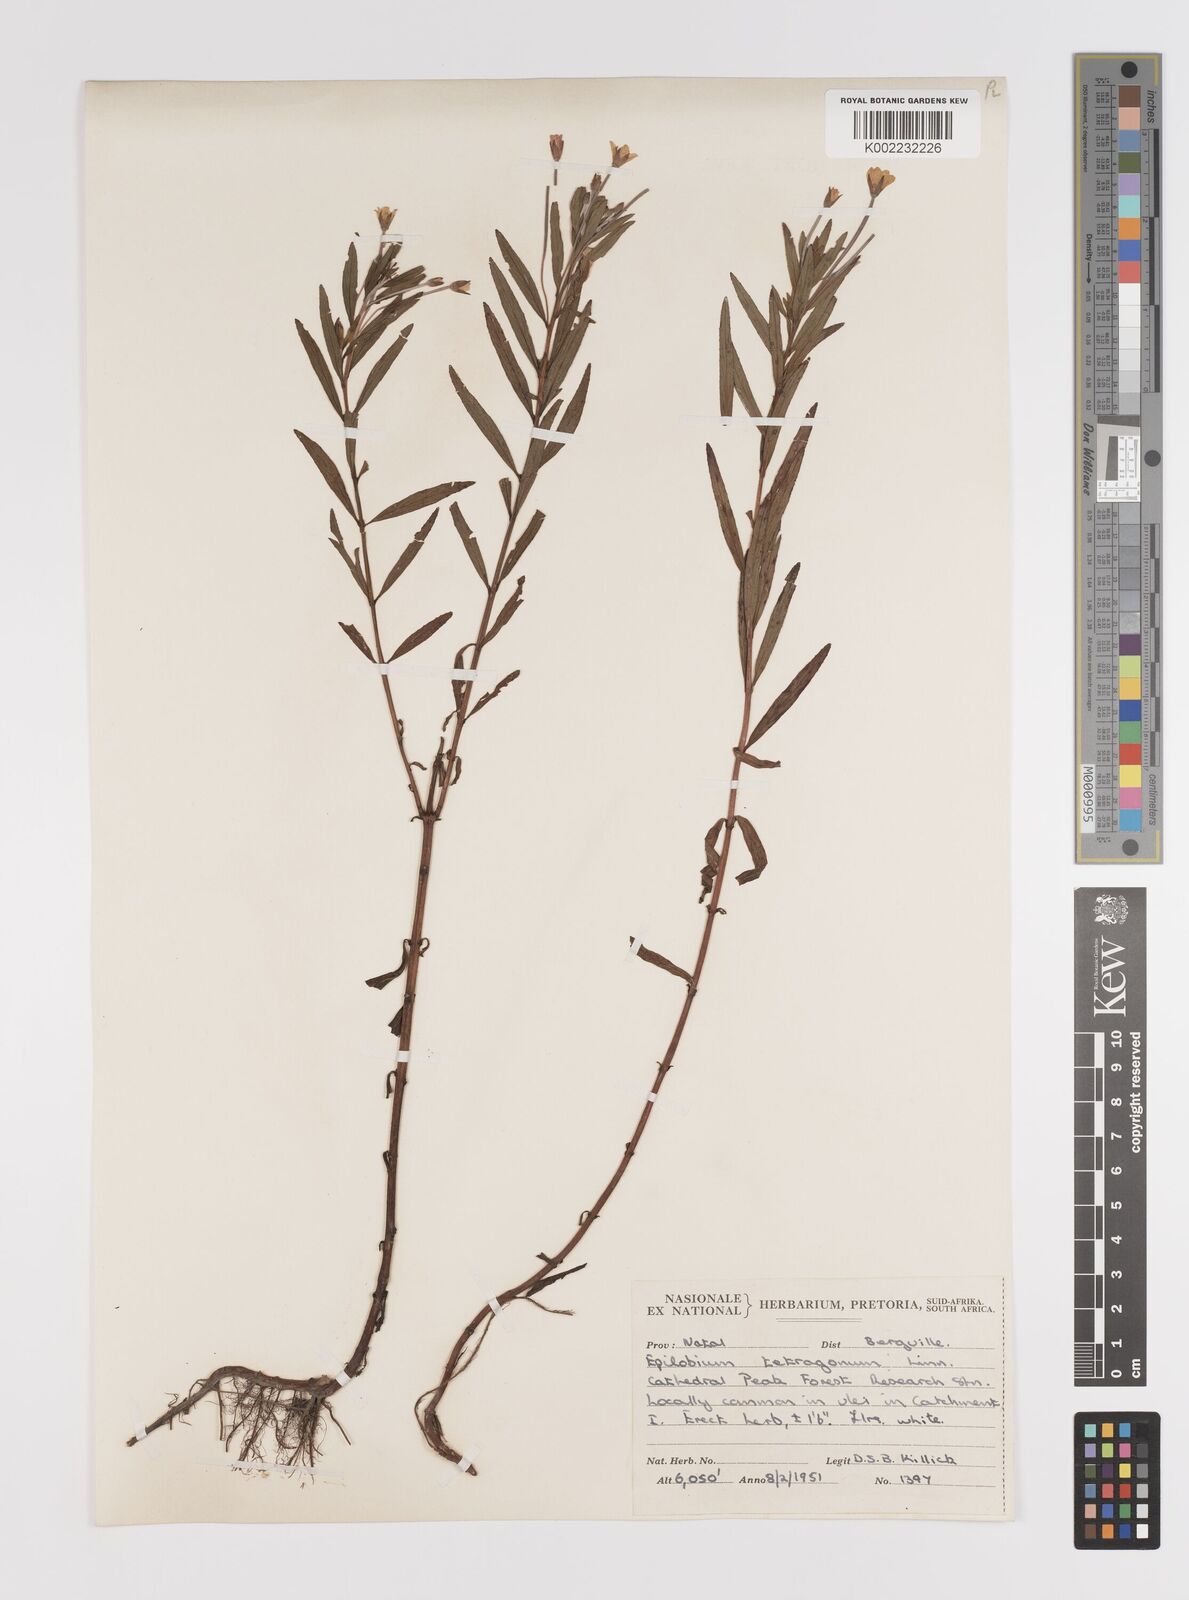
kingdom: Plantae
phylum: Tracheophyta
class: Magnoliopsida
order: Myrtales
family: Onagraceae
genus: Epilobium
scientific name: Epilobium salignum
